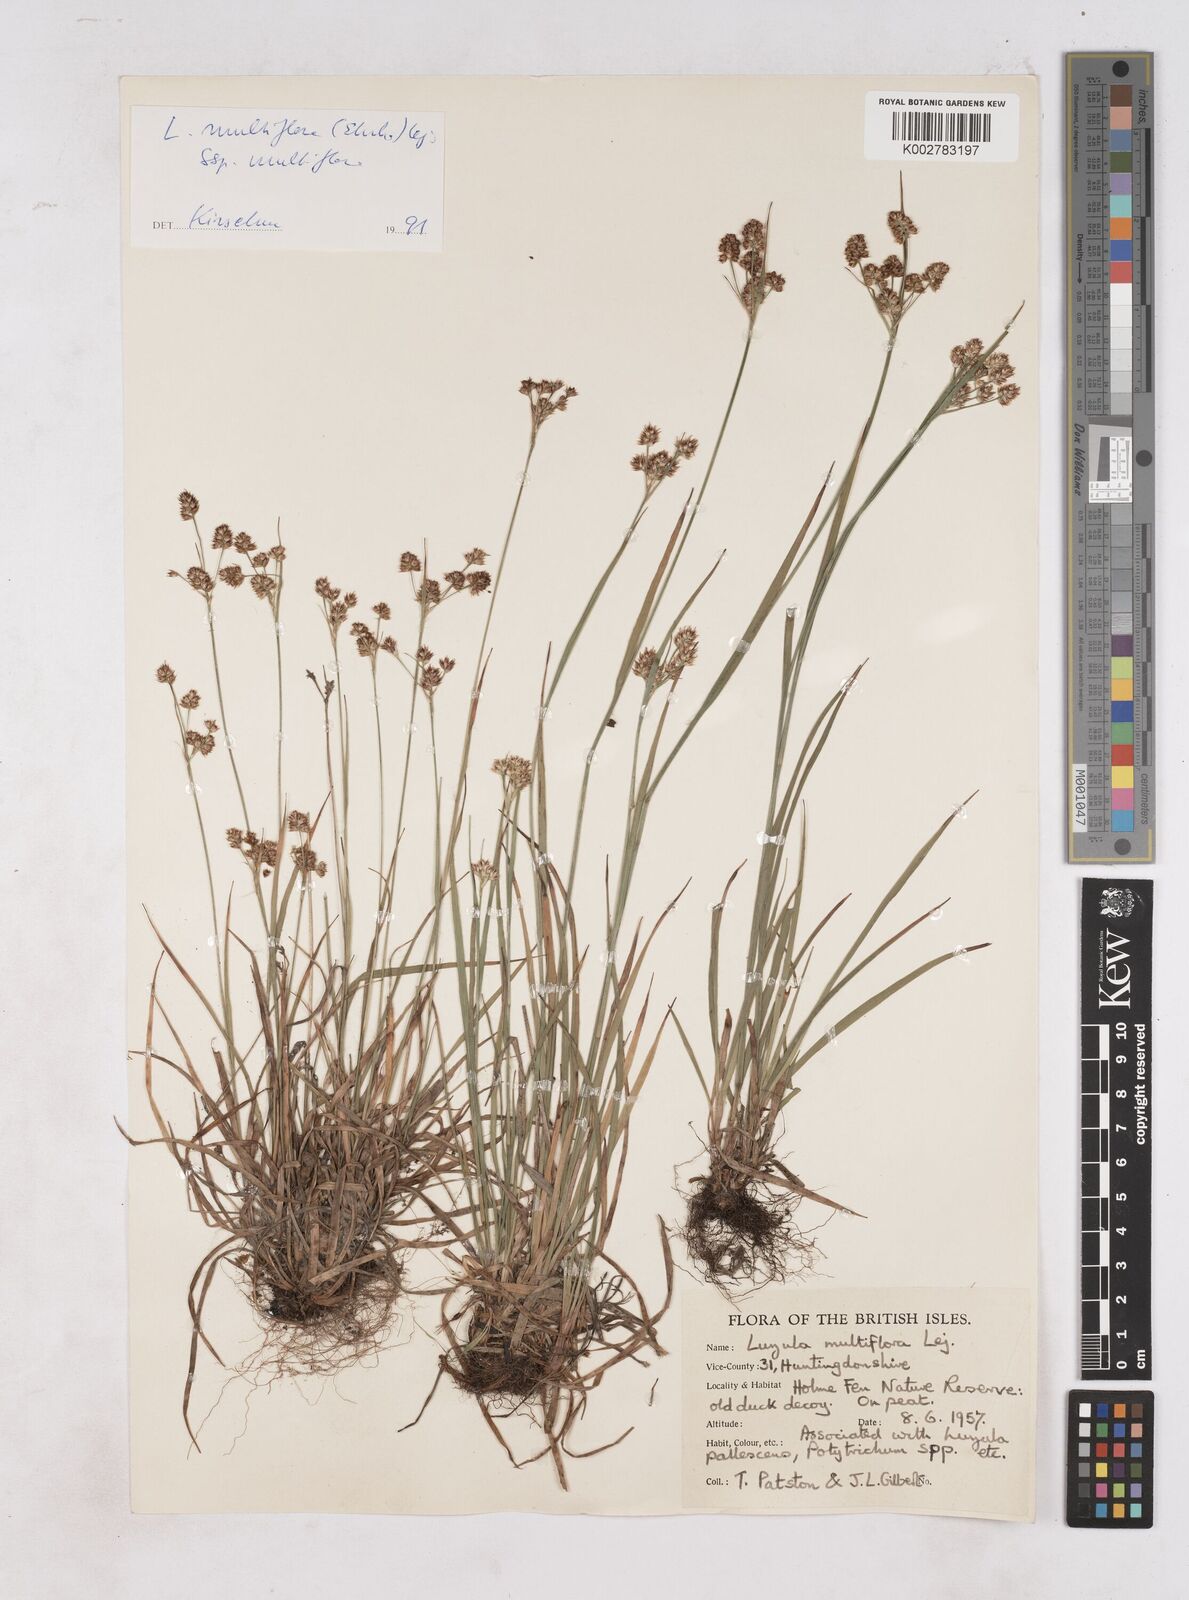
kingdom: Plantae
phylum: Tracheophyta
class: Liliopsida
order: Poales
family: Juncaceae
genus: Luzula
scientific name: Luzula multiflora
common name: Heath wood-rush
